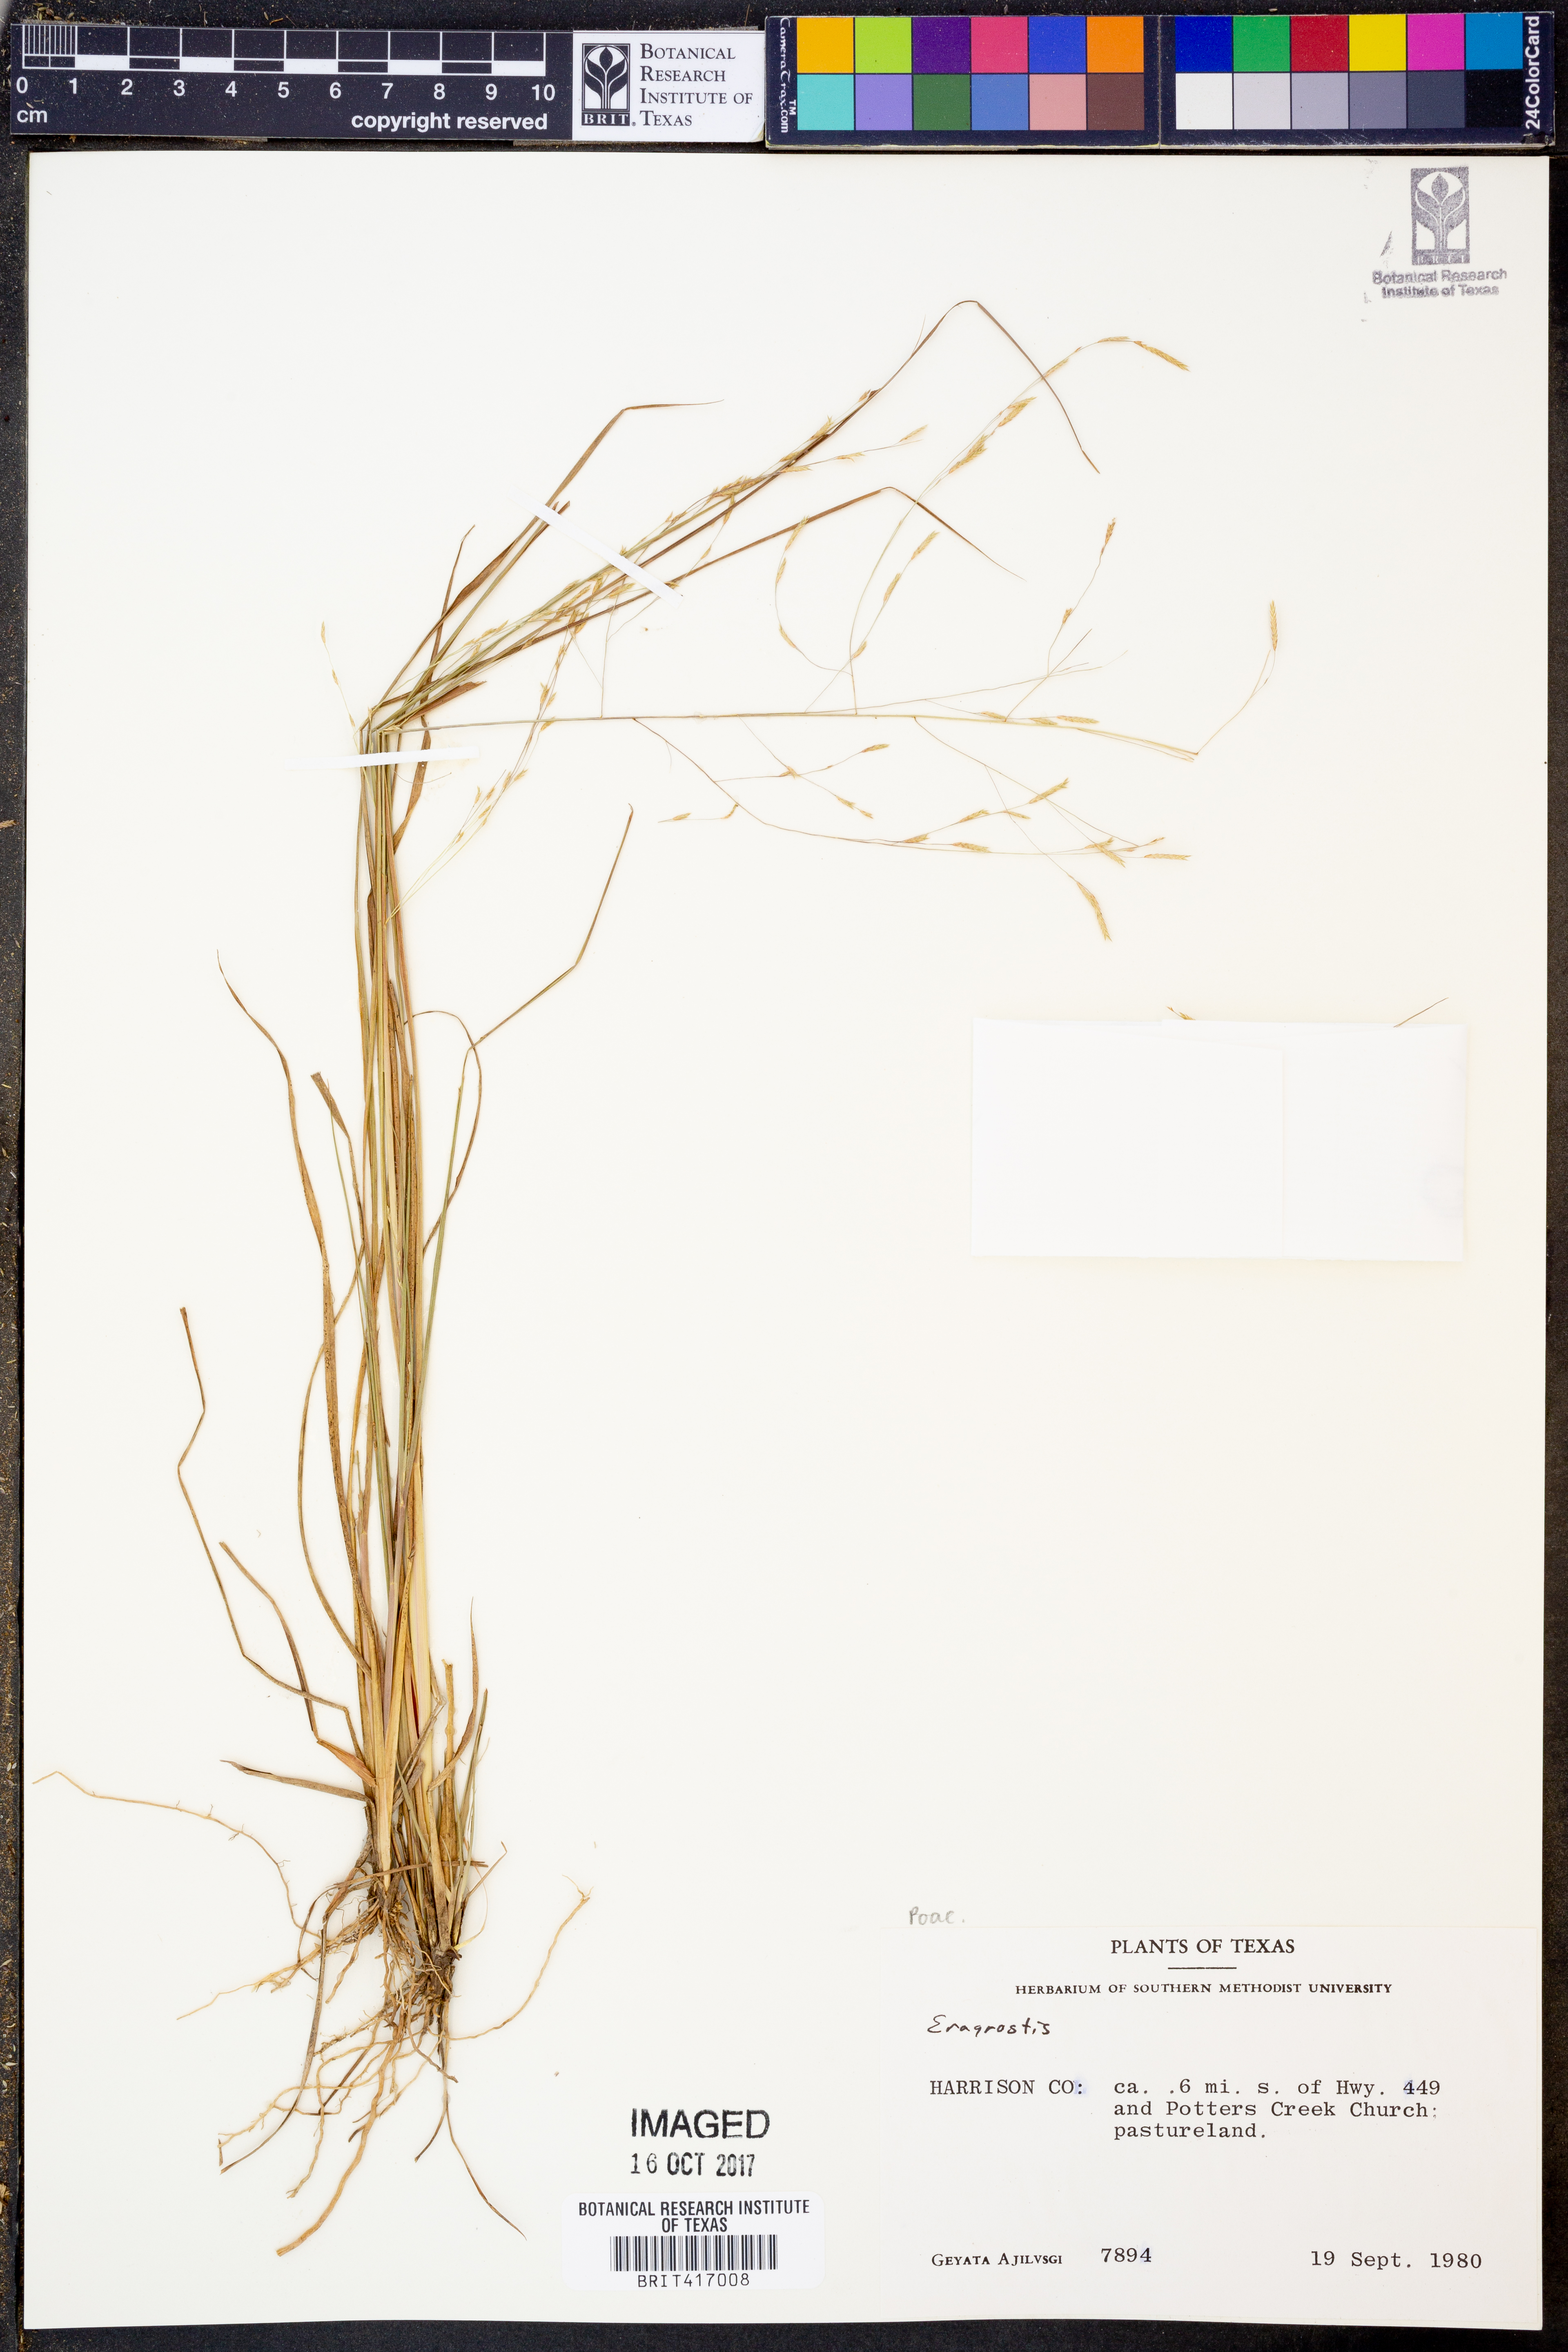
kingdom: Plantae
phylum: Tracheophyta
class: Liliopsida
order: Poales
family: Poaceae
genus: Eragrostis
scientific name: Eragrostis
